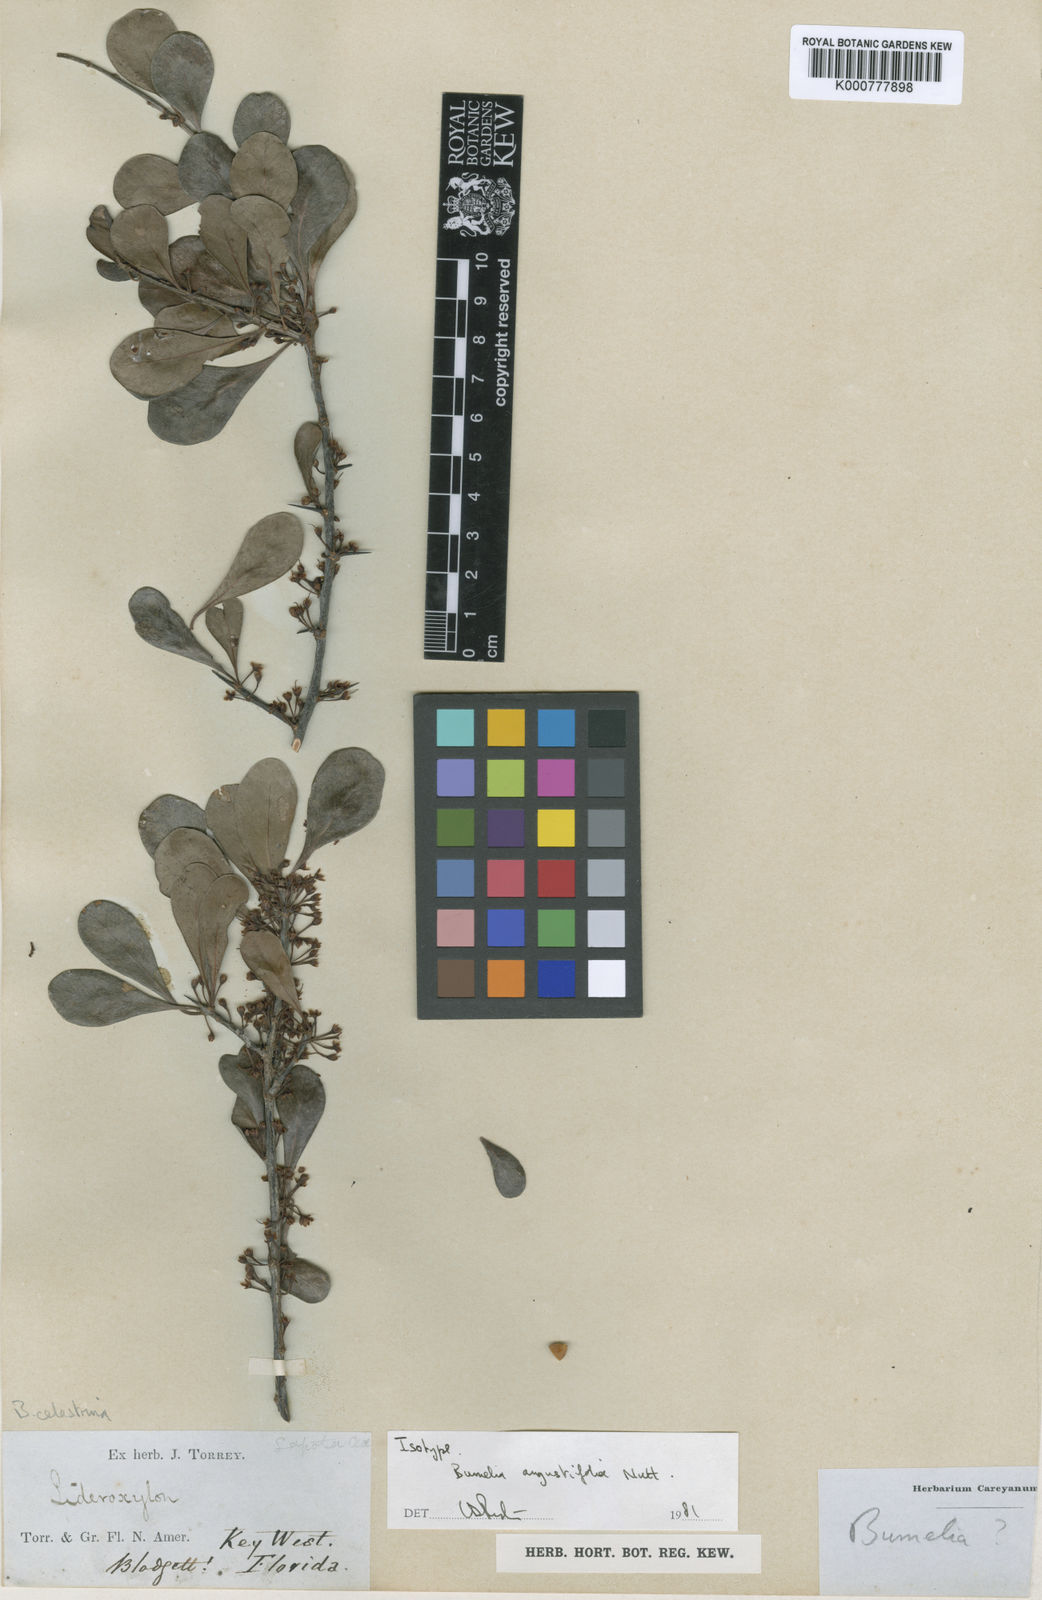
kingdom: Plantae
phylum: Tracheophyta
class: Magnoliopsida
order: Ericales
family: Sapotaceae
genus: Sideroxylon
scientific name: Sideroxylon celastrinum
